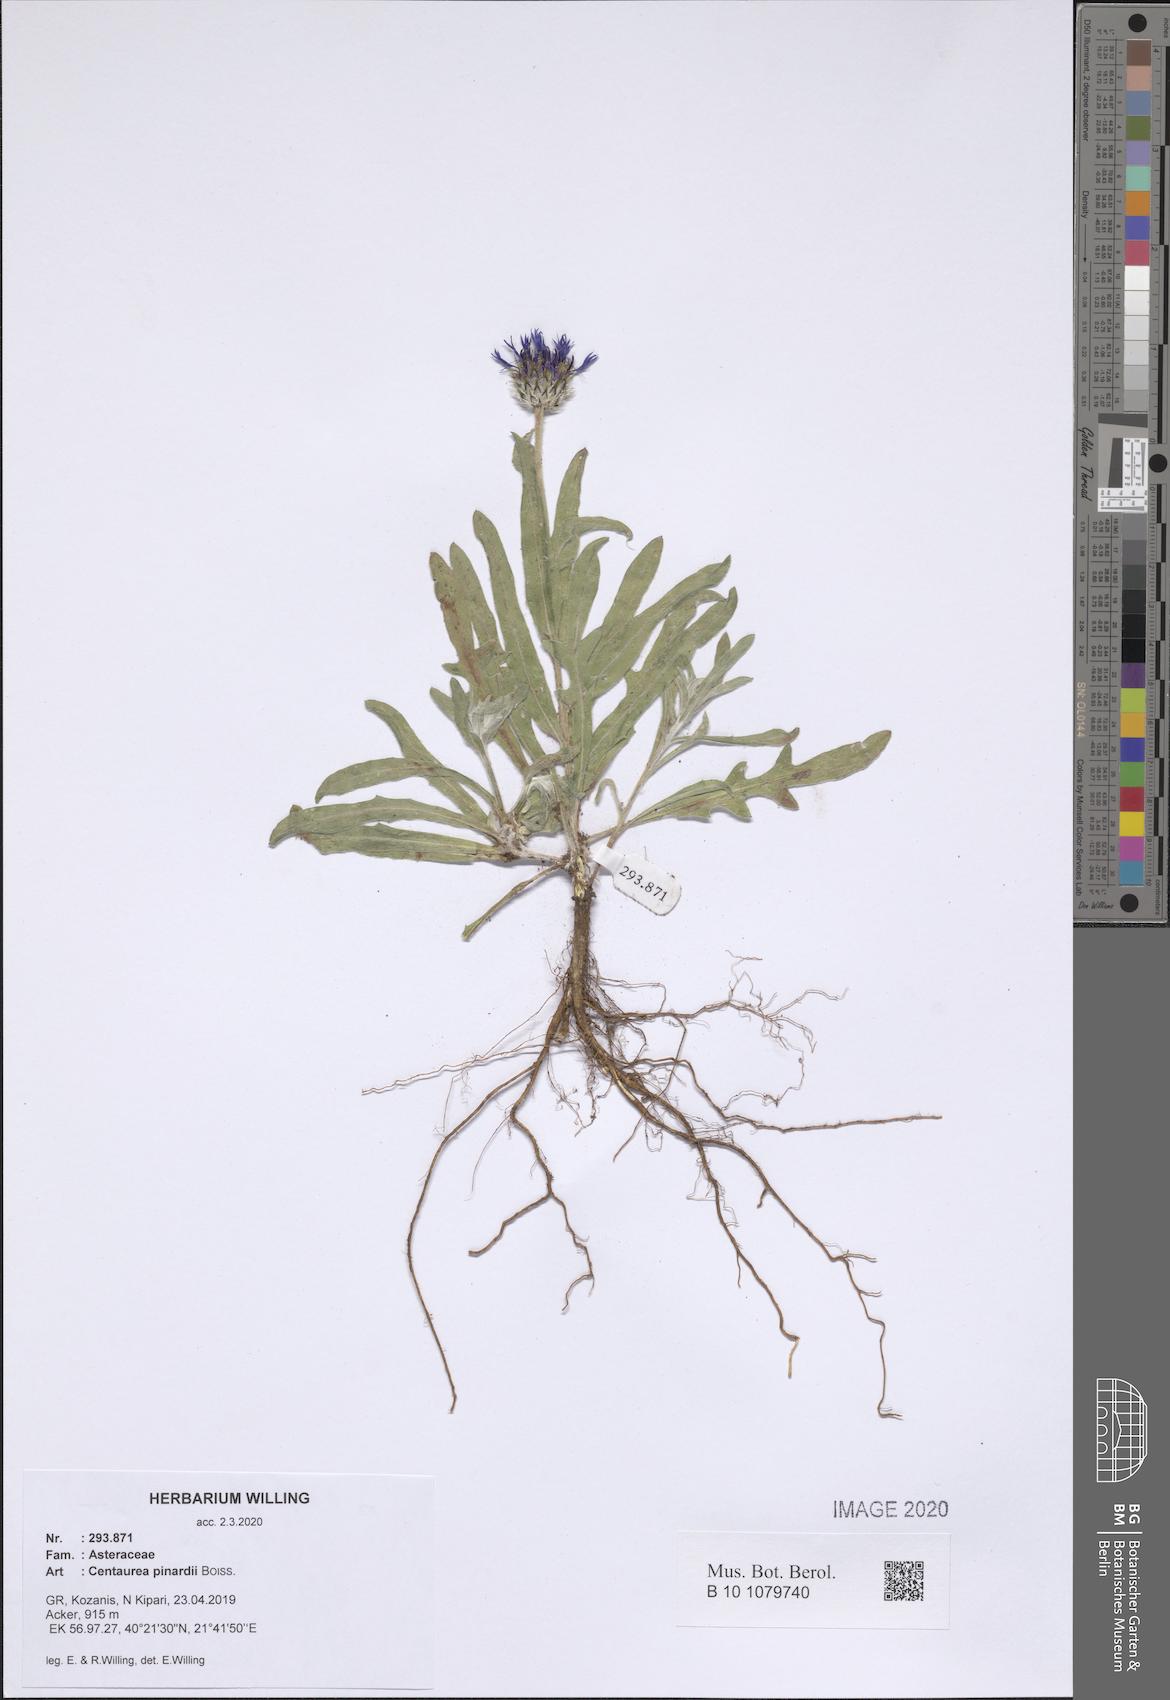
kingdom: Plantae
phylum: Tracheophyta
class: Magnoliopsida
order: Asterales
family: Asteraceae
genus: Centaurea
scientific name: Centaurea pinardii
